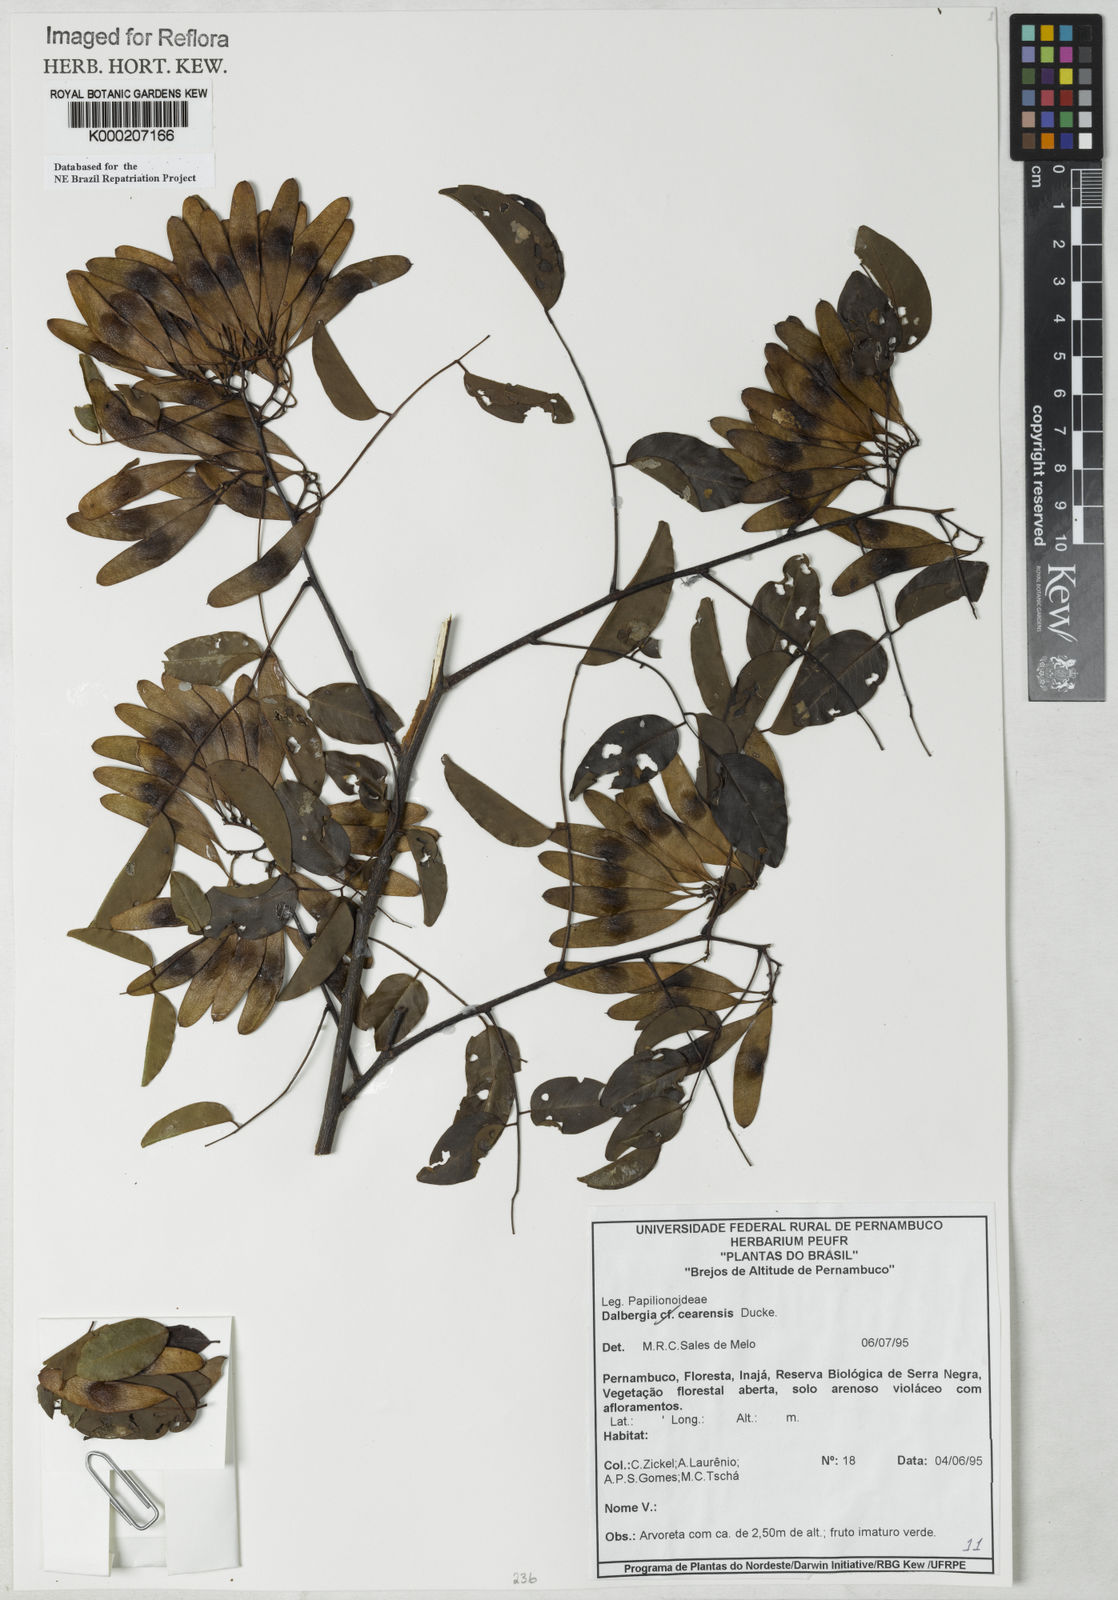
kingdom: Plantae
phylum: Tracheophyta
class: Magnoliopsida
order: Fabales
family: Fabaceae
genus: Dalbergia
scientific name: Dalbergia cearensis
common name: Brazilian-king-wood
